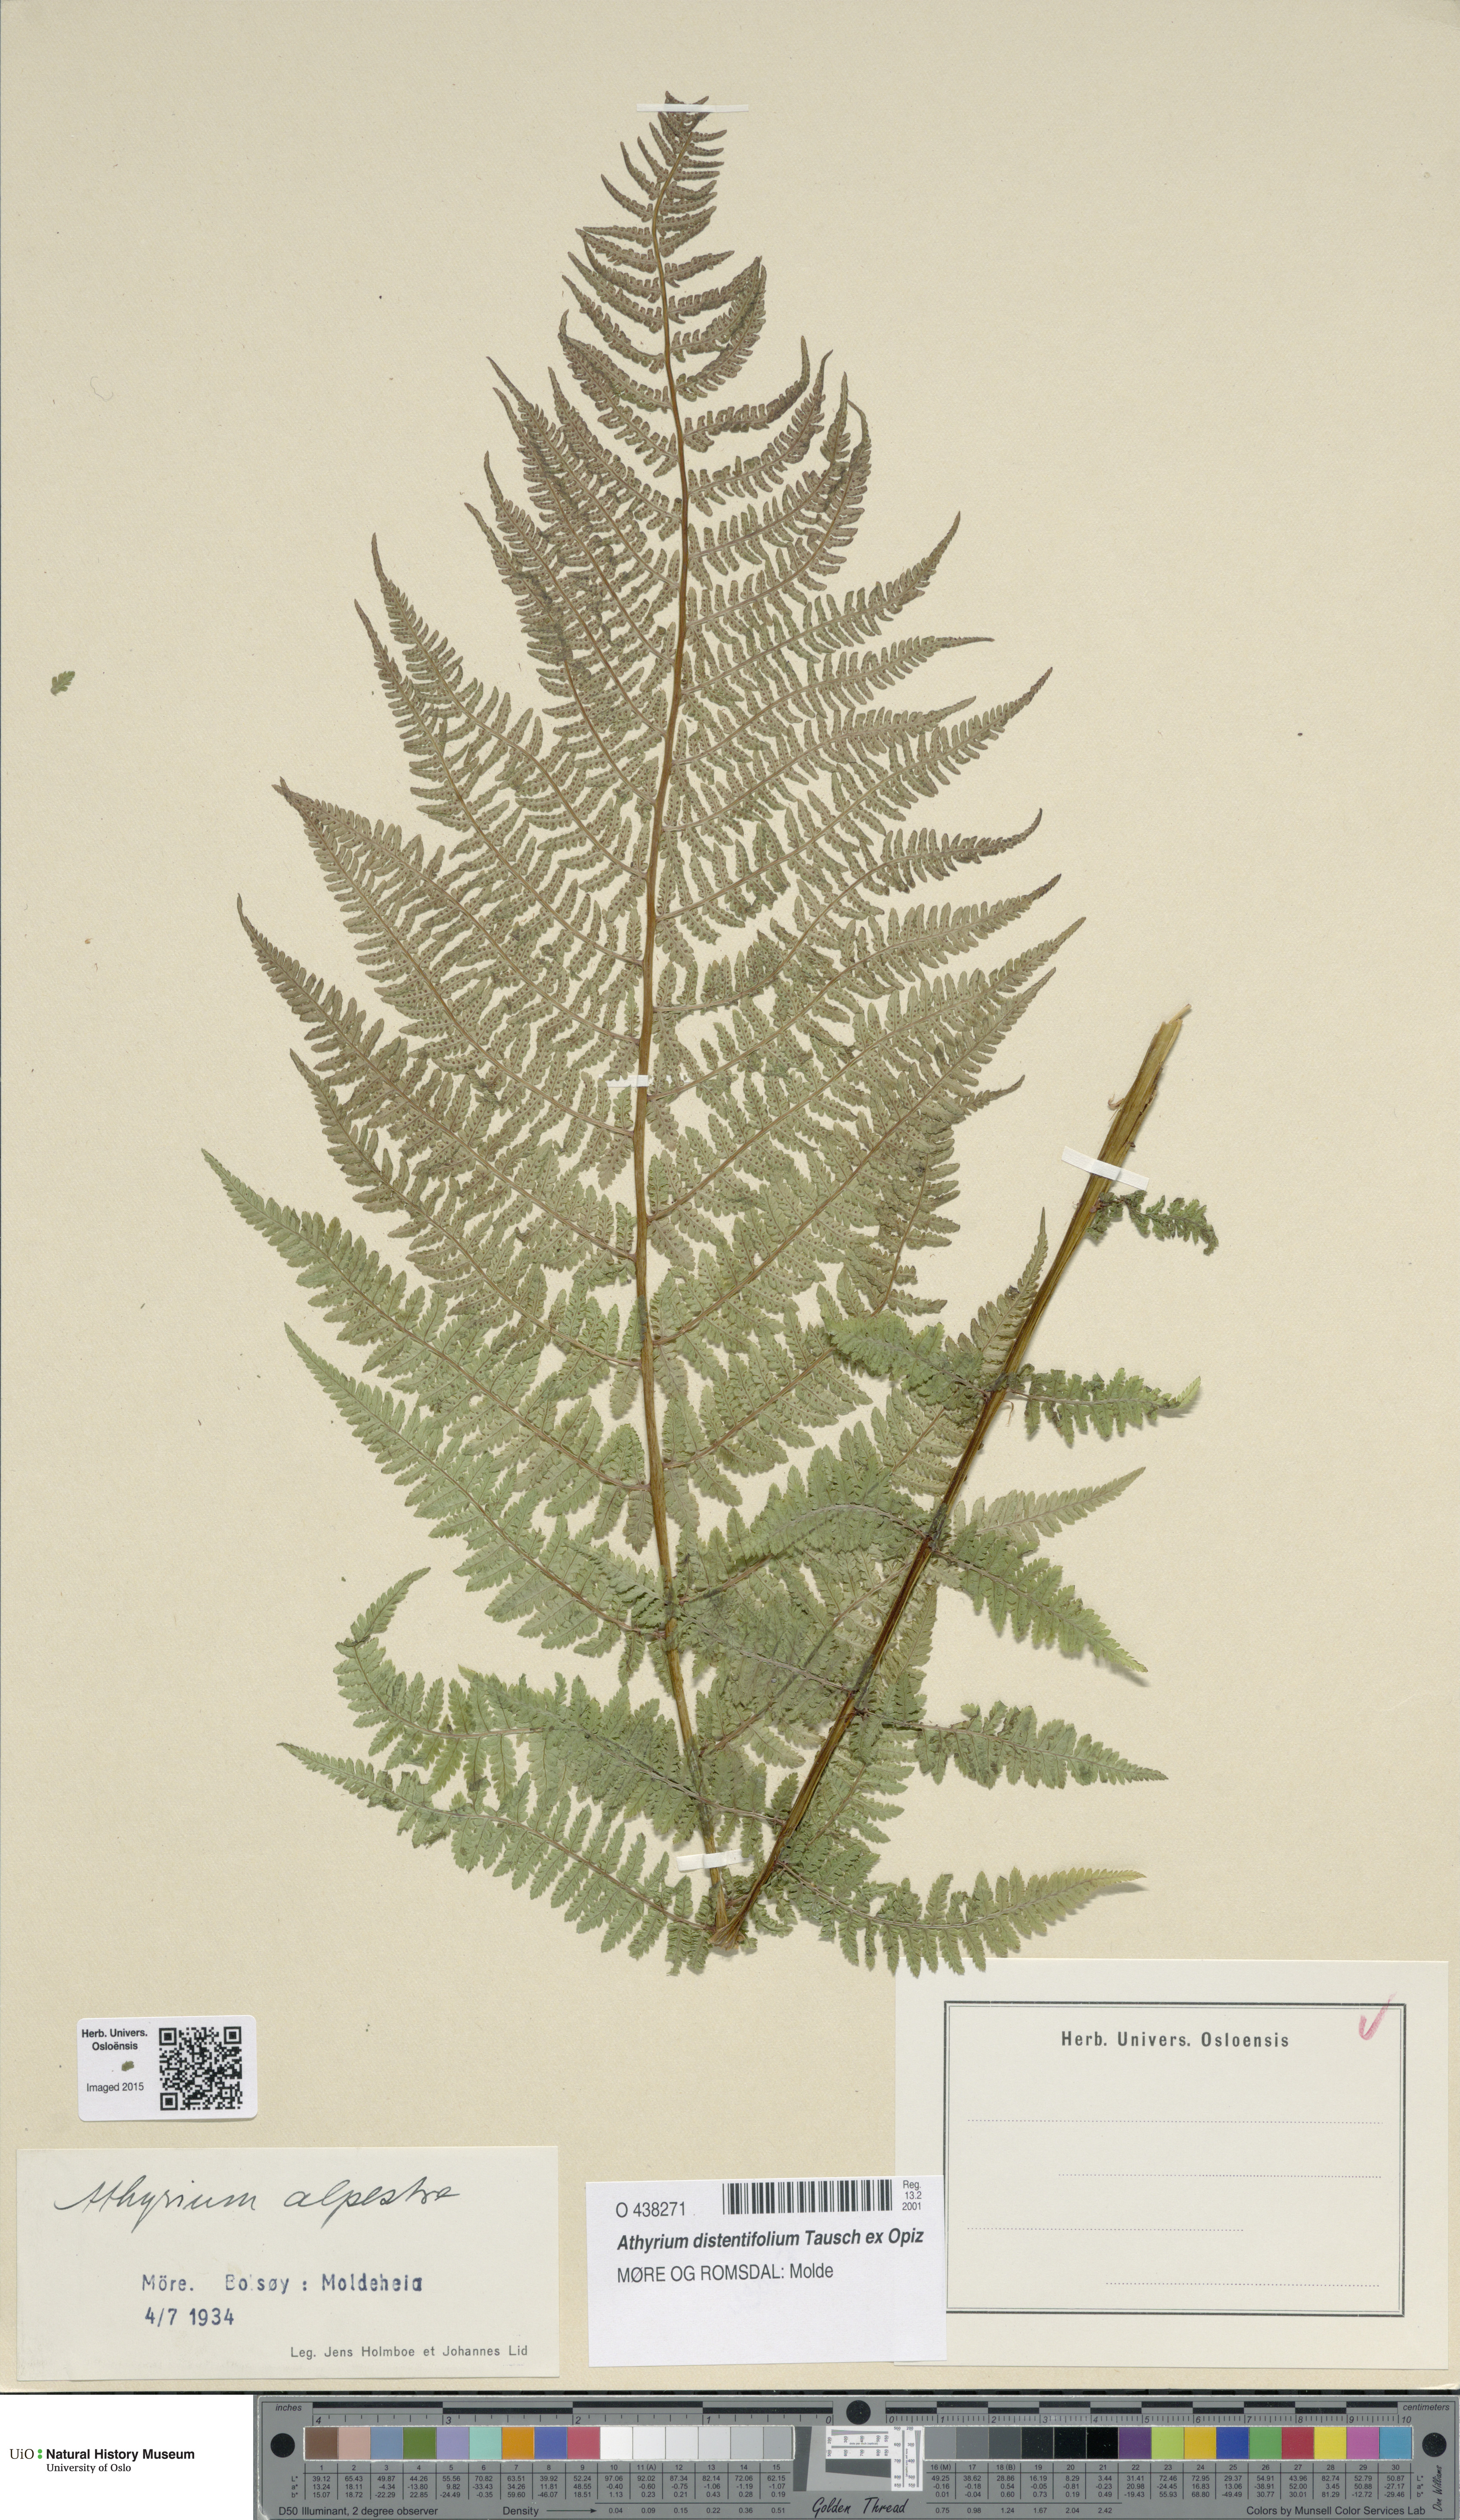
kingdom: Plantae
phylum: Tracheophyta
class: Polypodiopsida
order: Polypodiales
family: Athyriaceae
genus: Pseudathyrium
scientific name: Pseudathyrium alpestre
